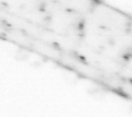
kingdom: Animalia
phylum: Arthropoda
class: Copepoda
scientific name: Copepoda
